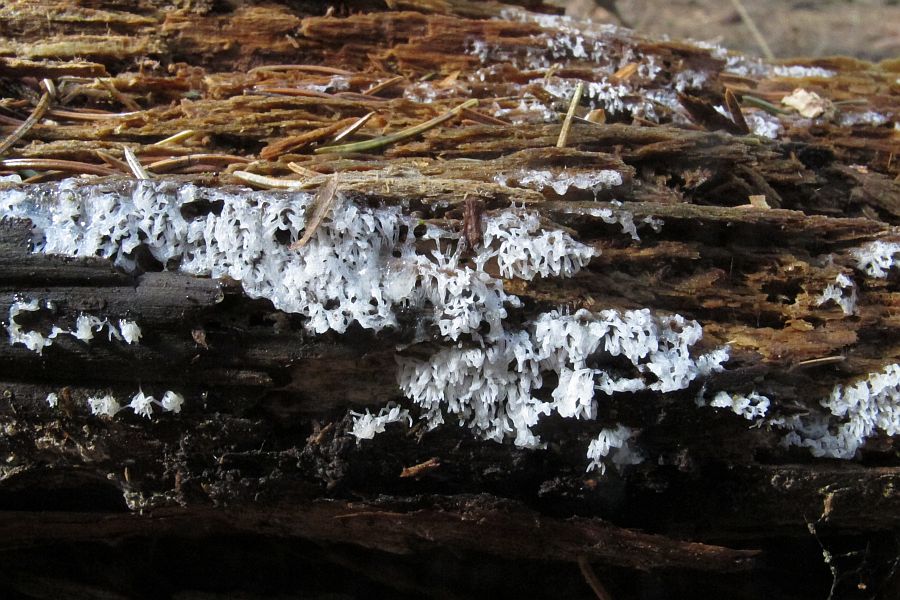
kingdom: Protozoa
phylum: Mycetozoa
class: Protosteliomycetes
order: Ceratiomyxales
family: Ceratiomyxaceae
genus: Ceratiomyxa
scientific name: Ceratiomyxa fruticulosa
